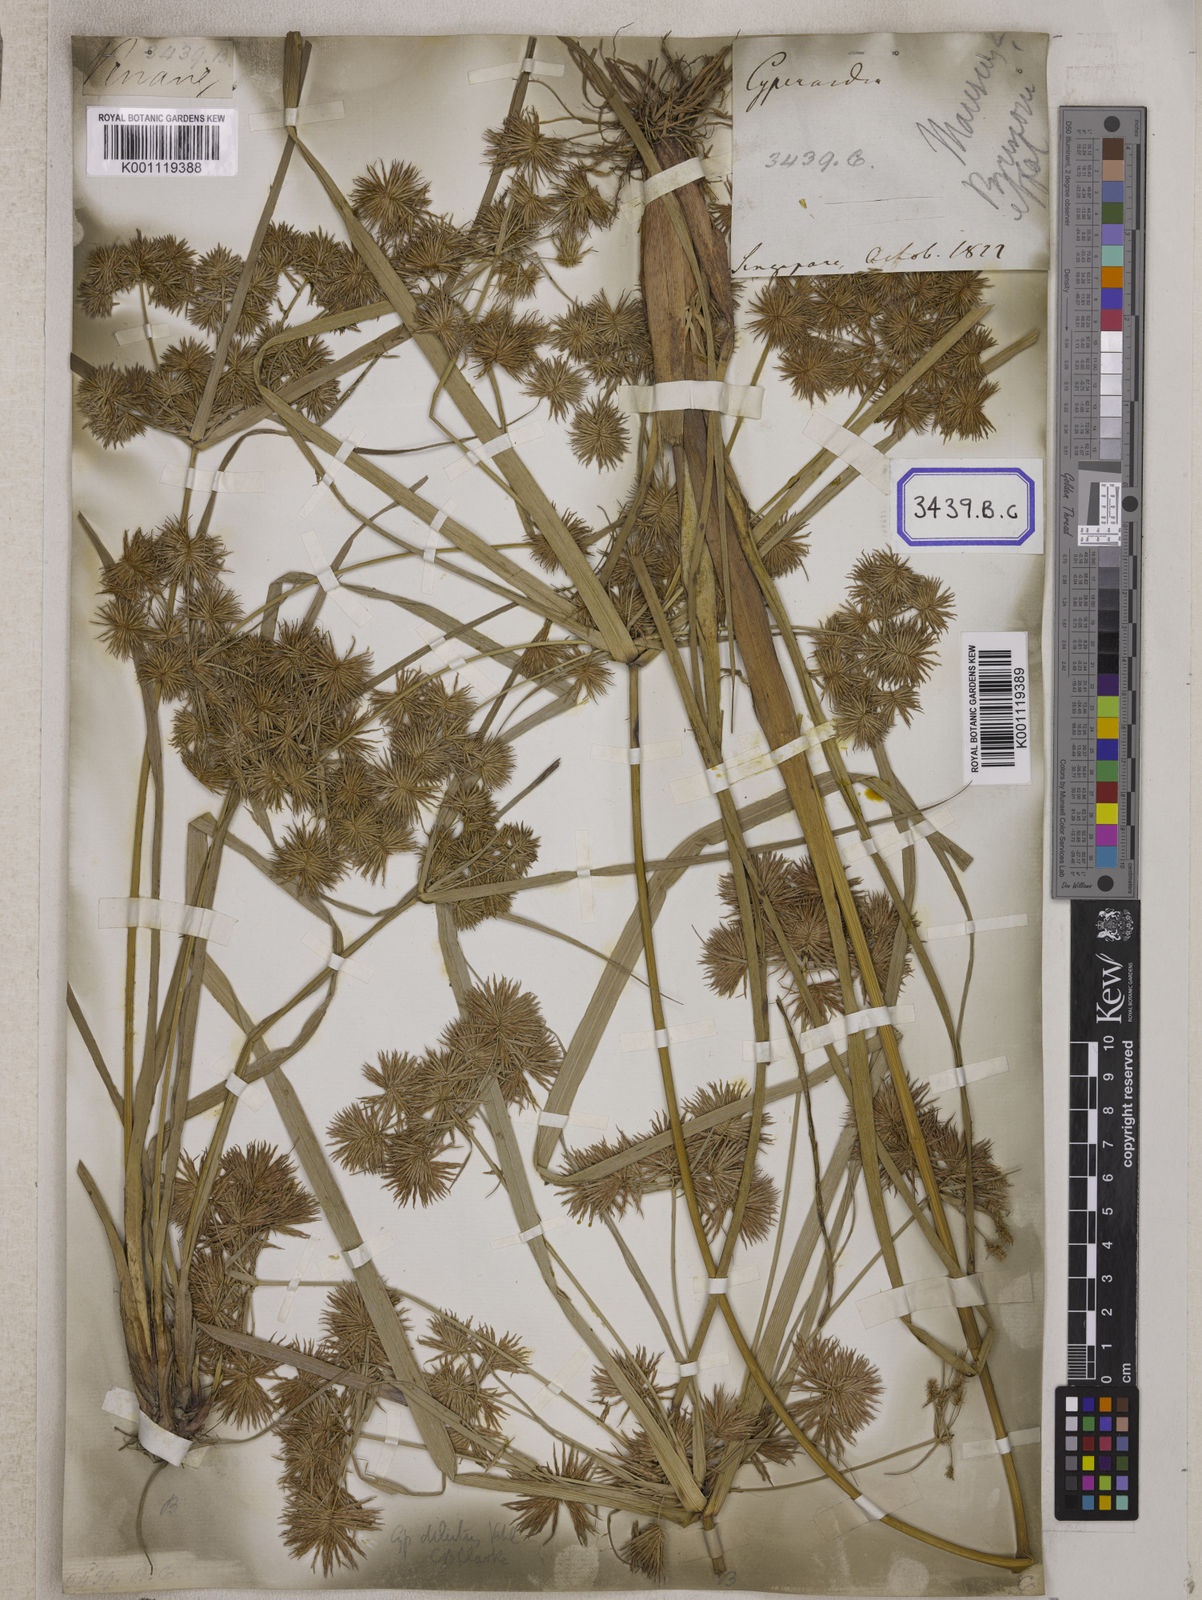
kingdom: Plantae
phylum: Tracheophyta
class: Liliopsida
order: Poales
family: Cyperaceae
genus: Mariscus
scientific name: Mariscus
